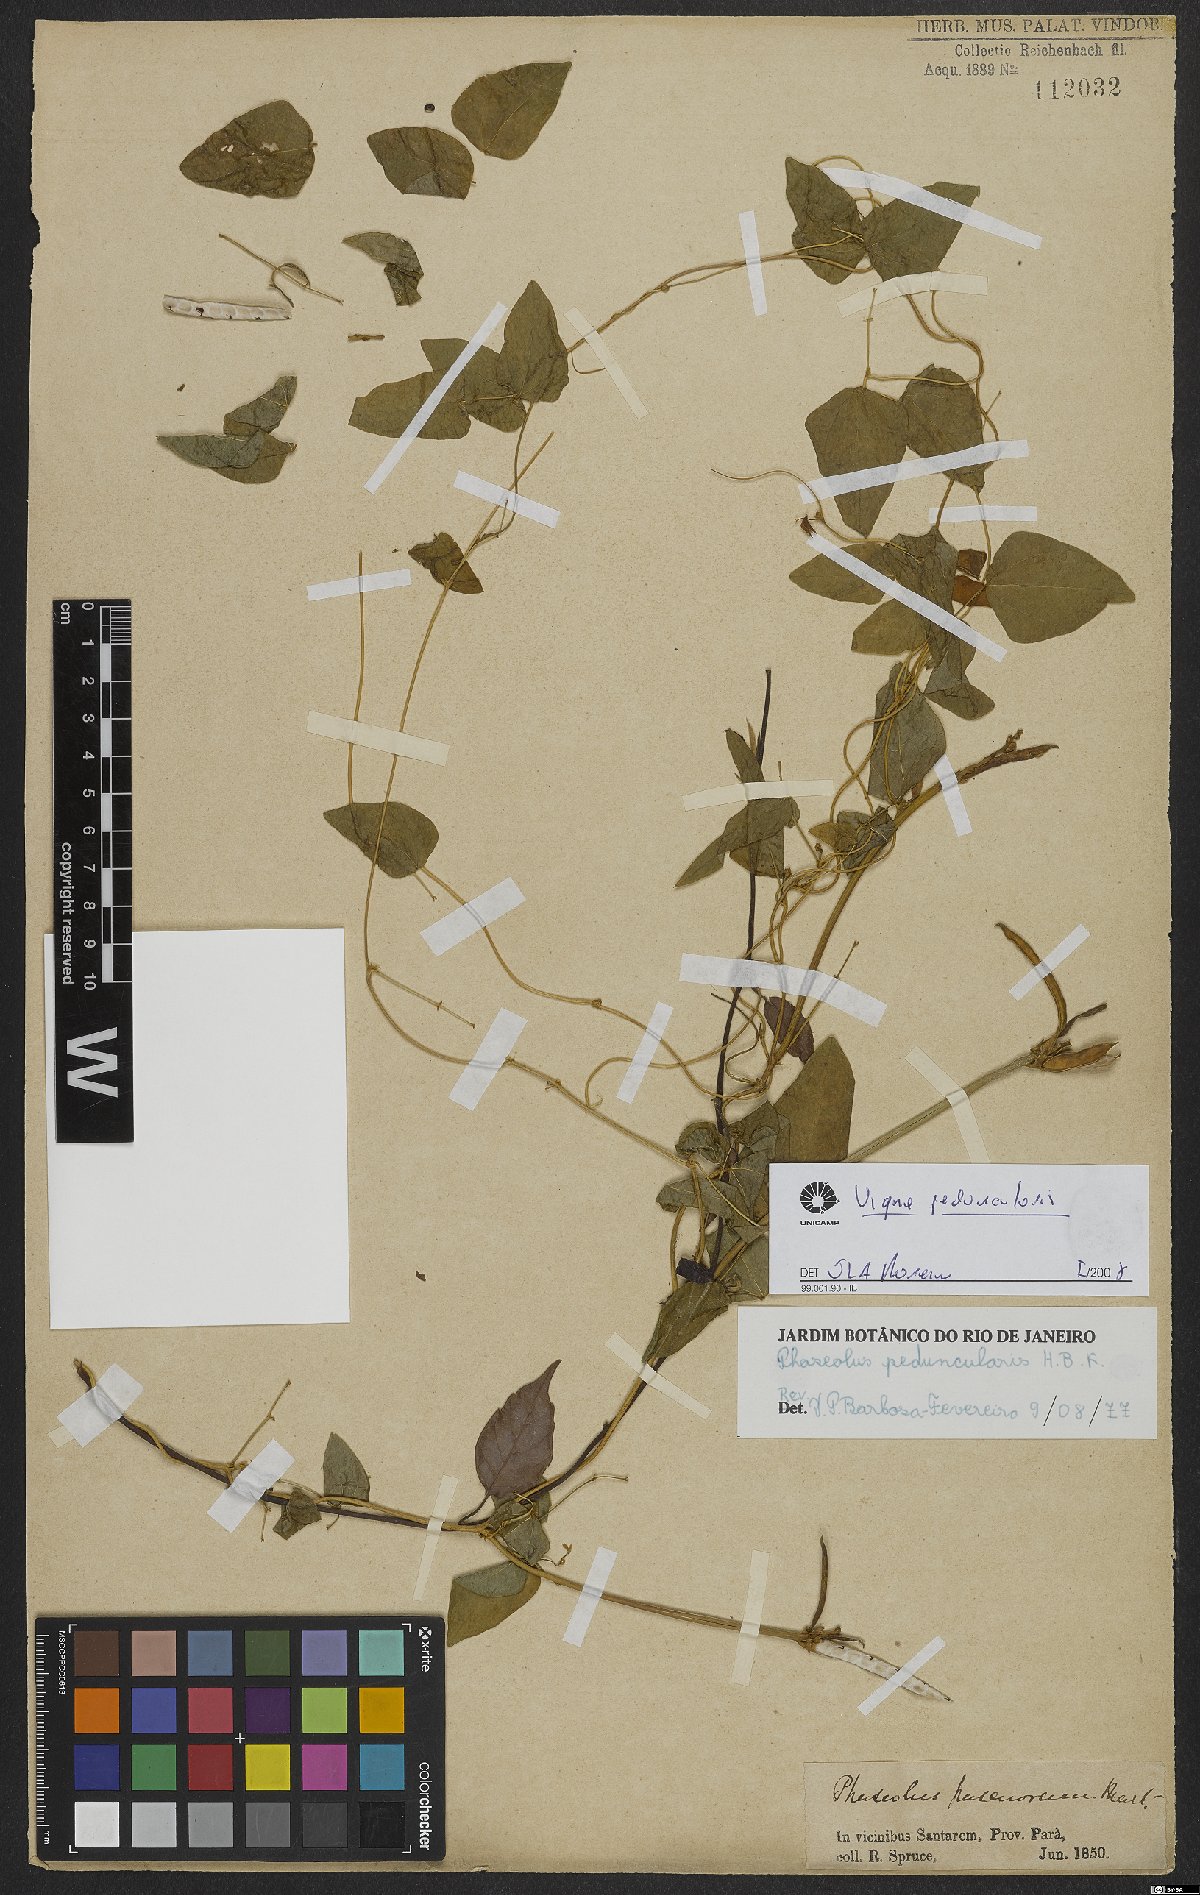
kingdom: Plantae
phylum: Tracheophyta
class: Magnoliopsida
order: Fabales
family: Fabaceae
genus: Ancistrotropis
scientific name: Ancistrotropis peduncularis
